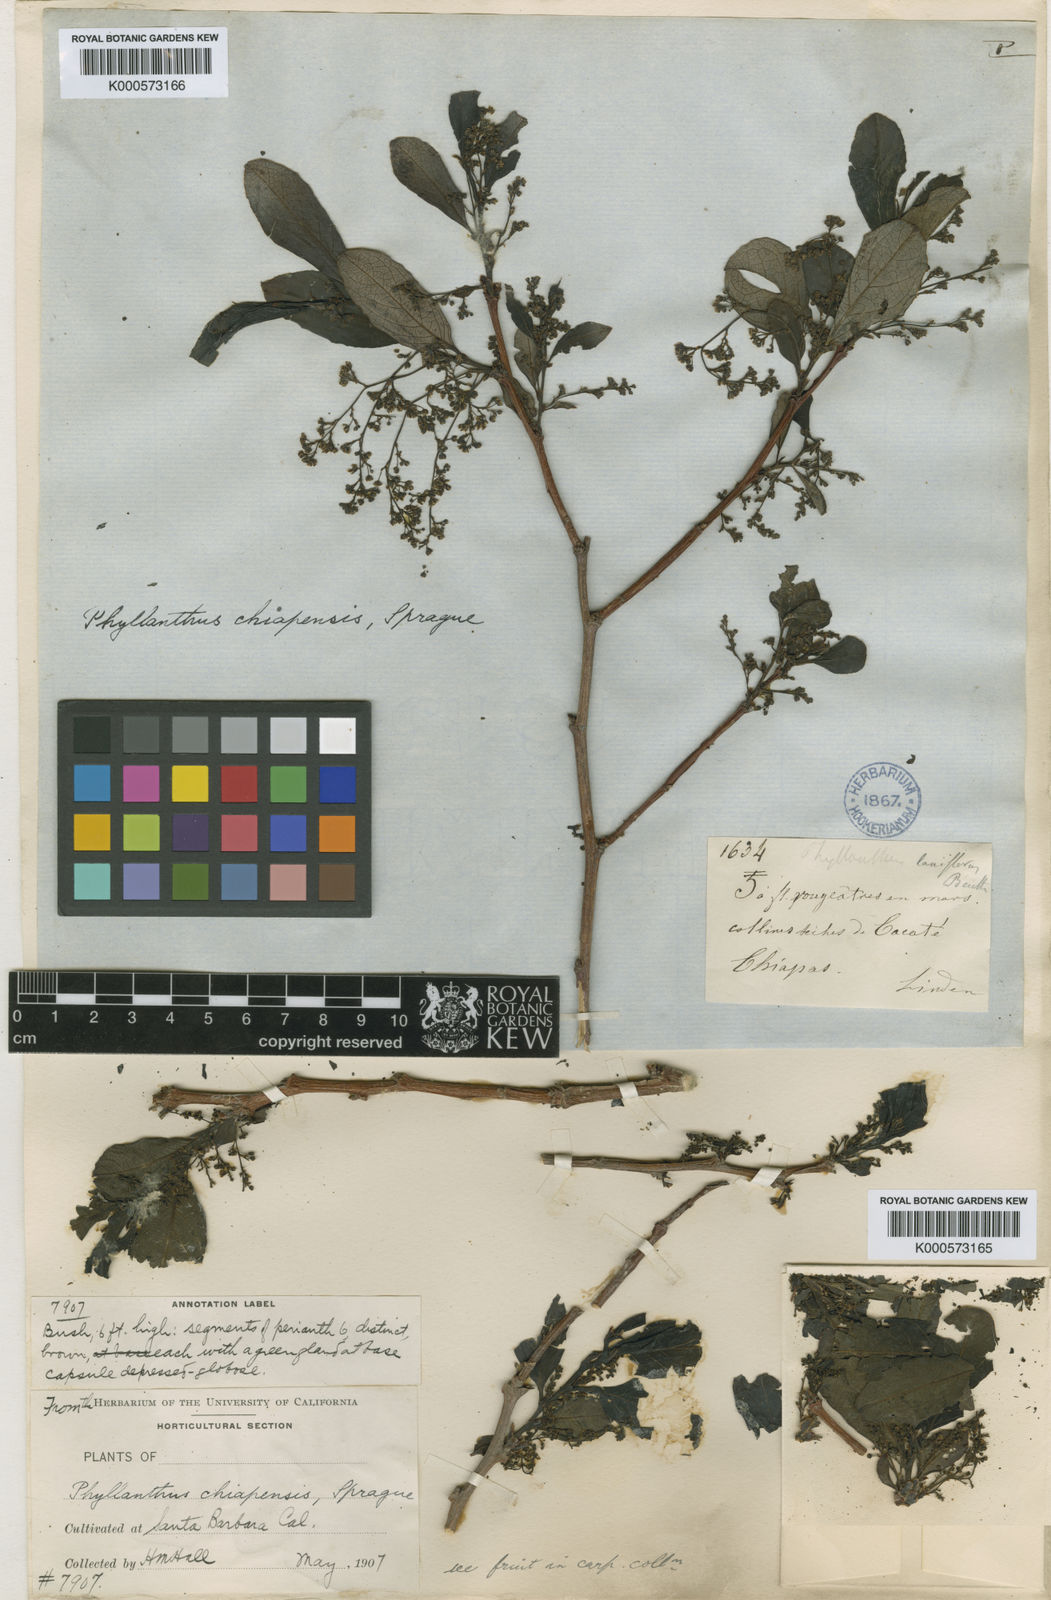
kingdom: Plantae
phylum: Tracheophyta
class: Magnoliopsida
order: Malpighiales
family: Phyllanthaceae
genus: Phyllanthus
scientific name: Phyllanthus chiapensis
